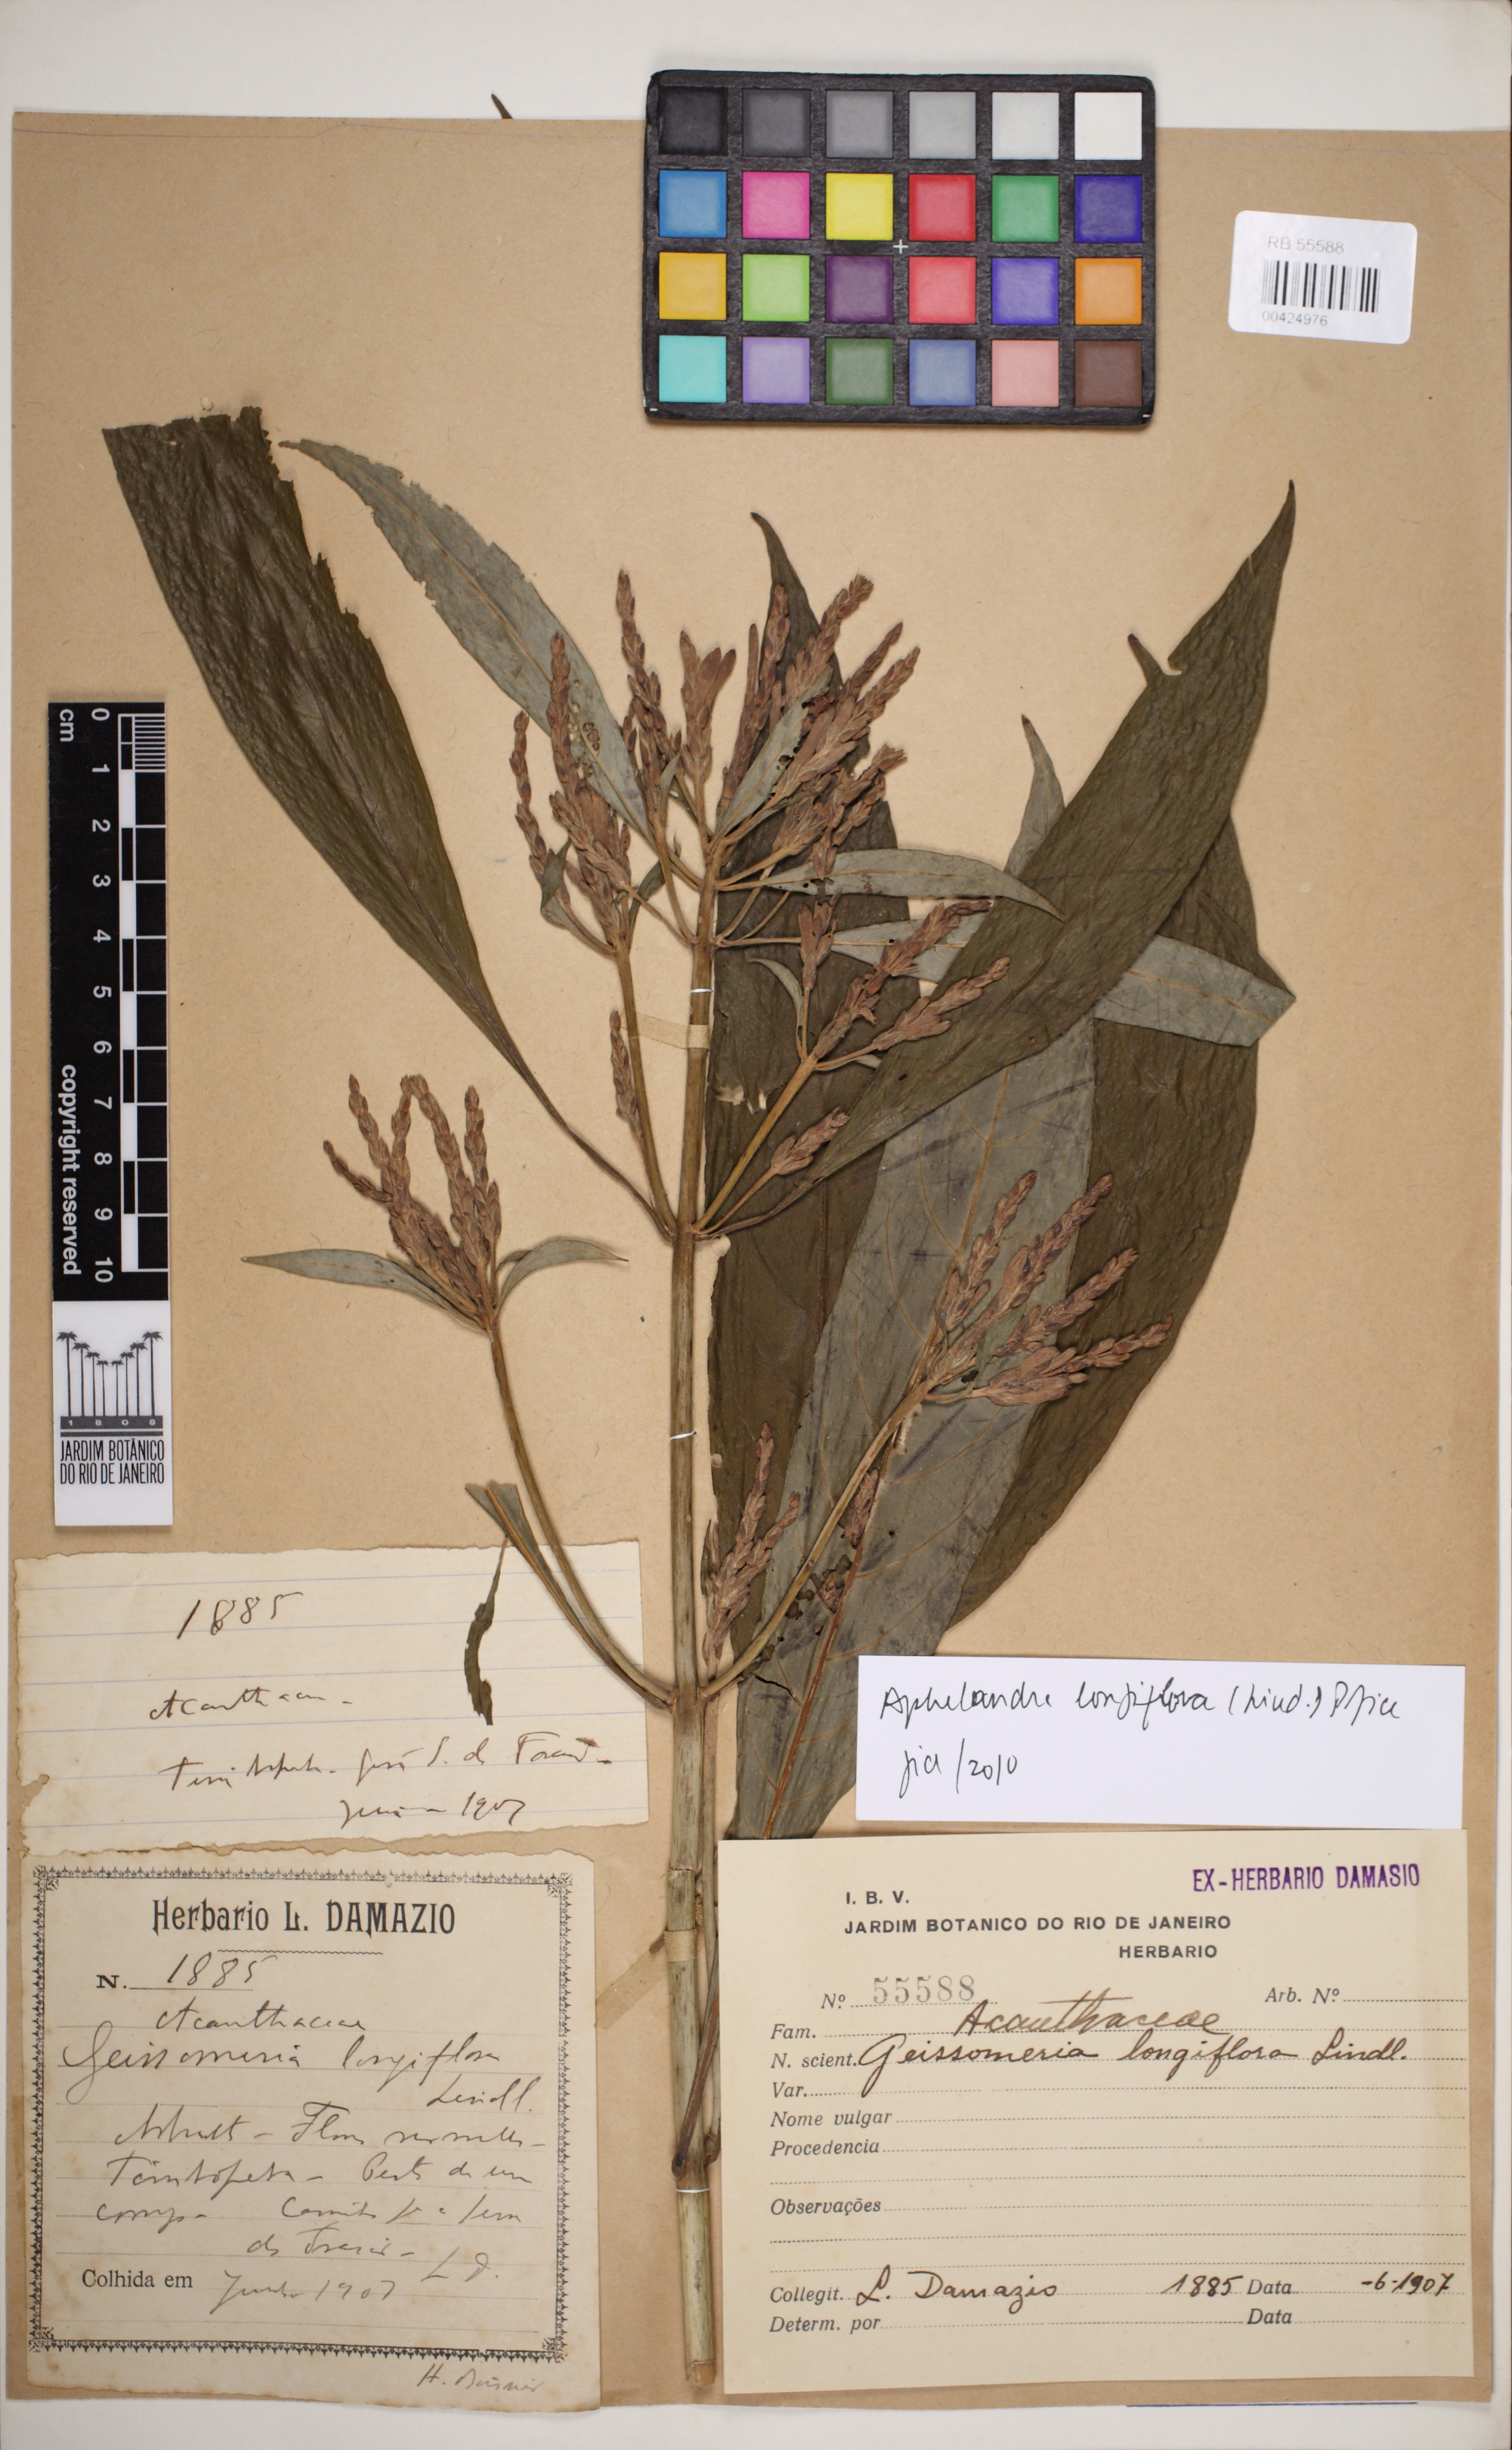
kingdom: Plantae
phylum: Tracheophyta
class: Magnoliopsida
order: Lamiales
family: Acanthaceae
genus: Aphelandra
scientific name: Aphelandra longiflora
